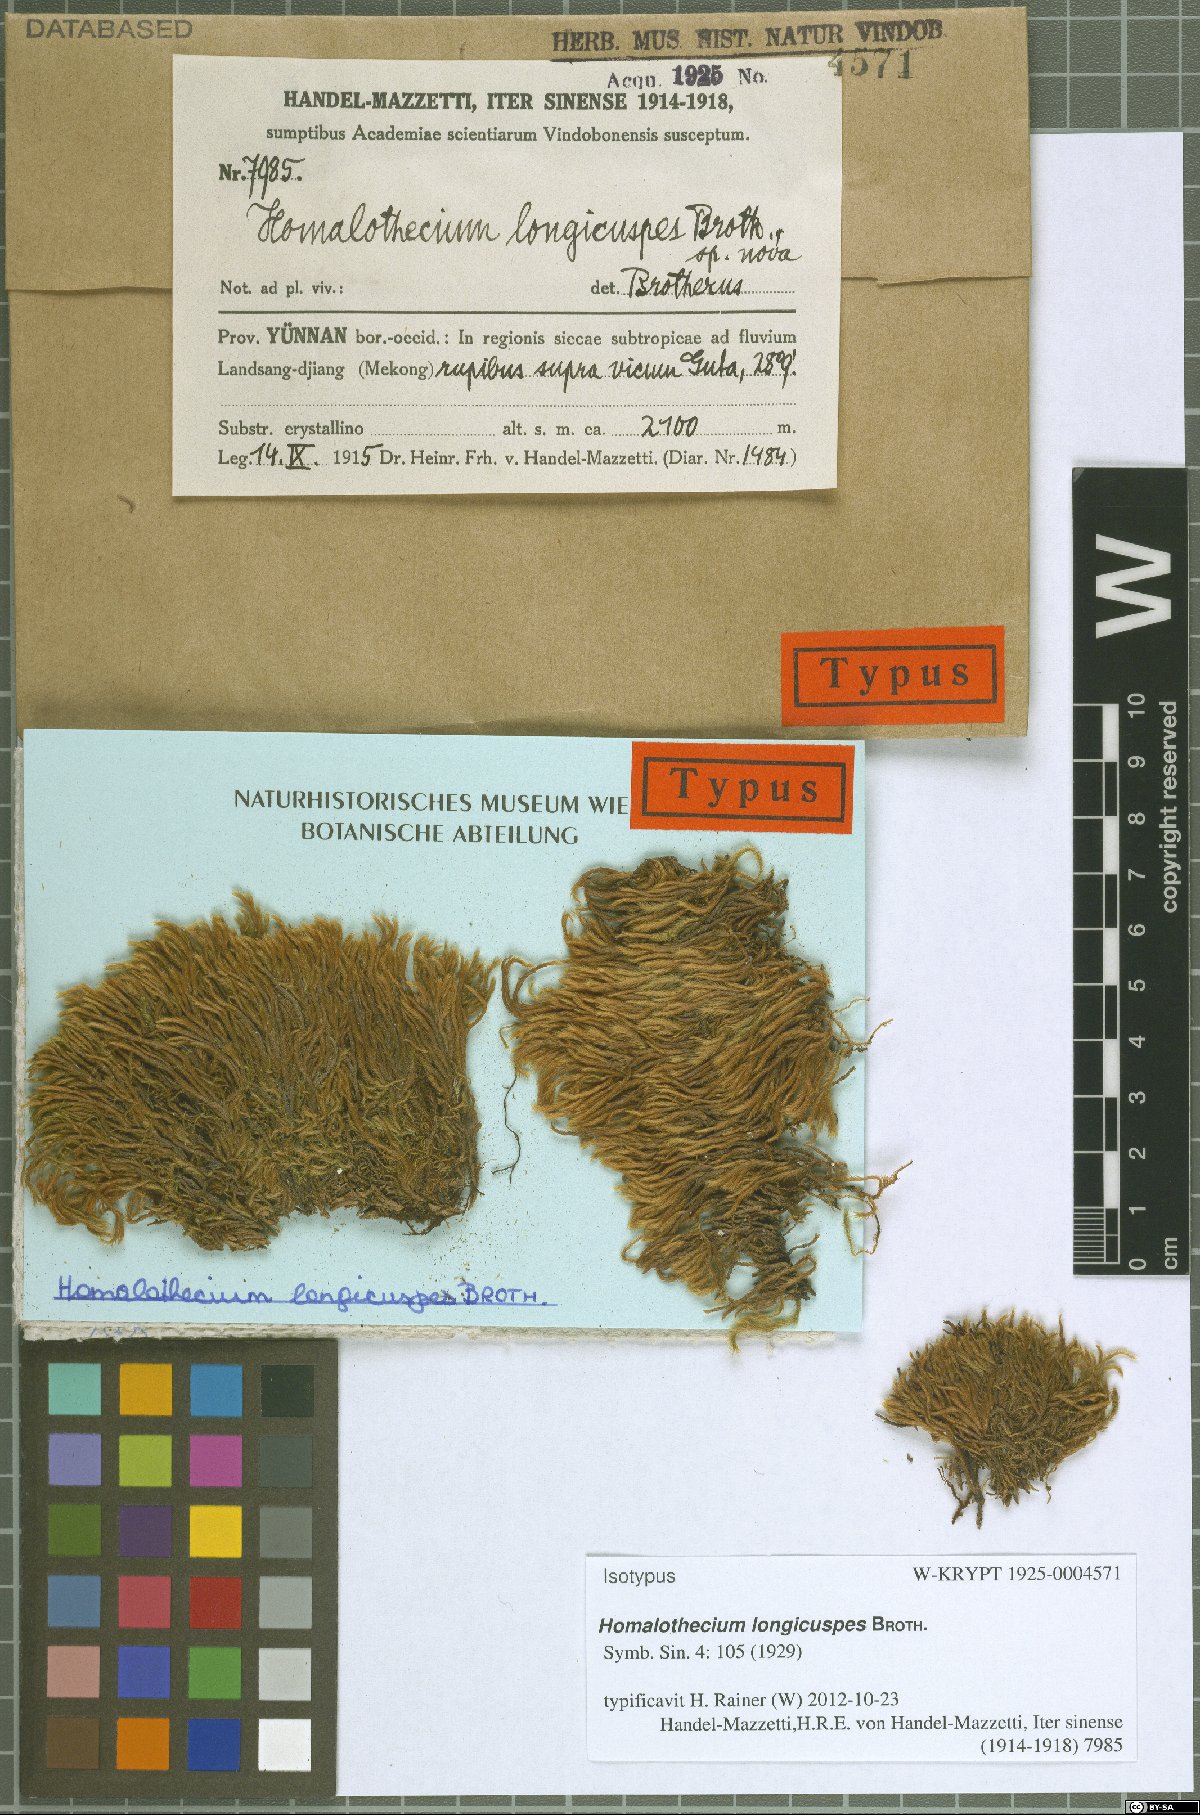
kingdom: Plantae
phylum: Bryophyta
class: Bryopsida
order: Hypnales
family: Brachytheciaceae
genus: Palamocladium
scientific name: Palamocladium leskeoides
